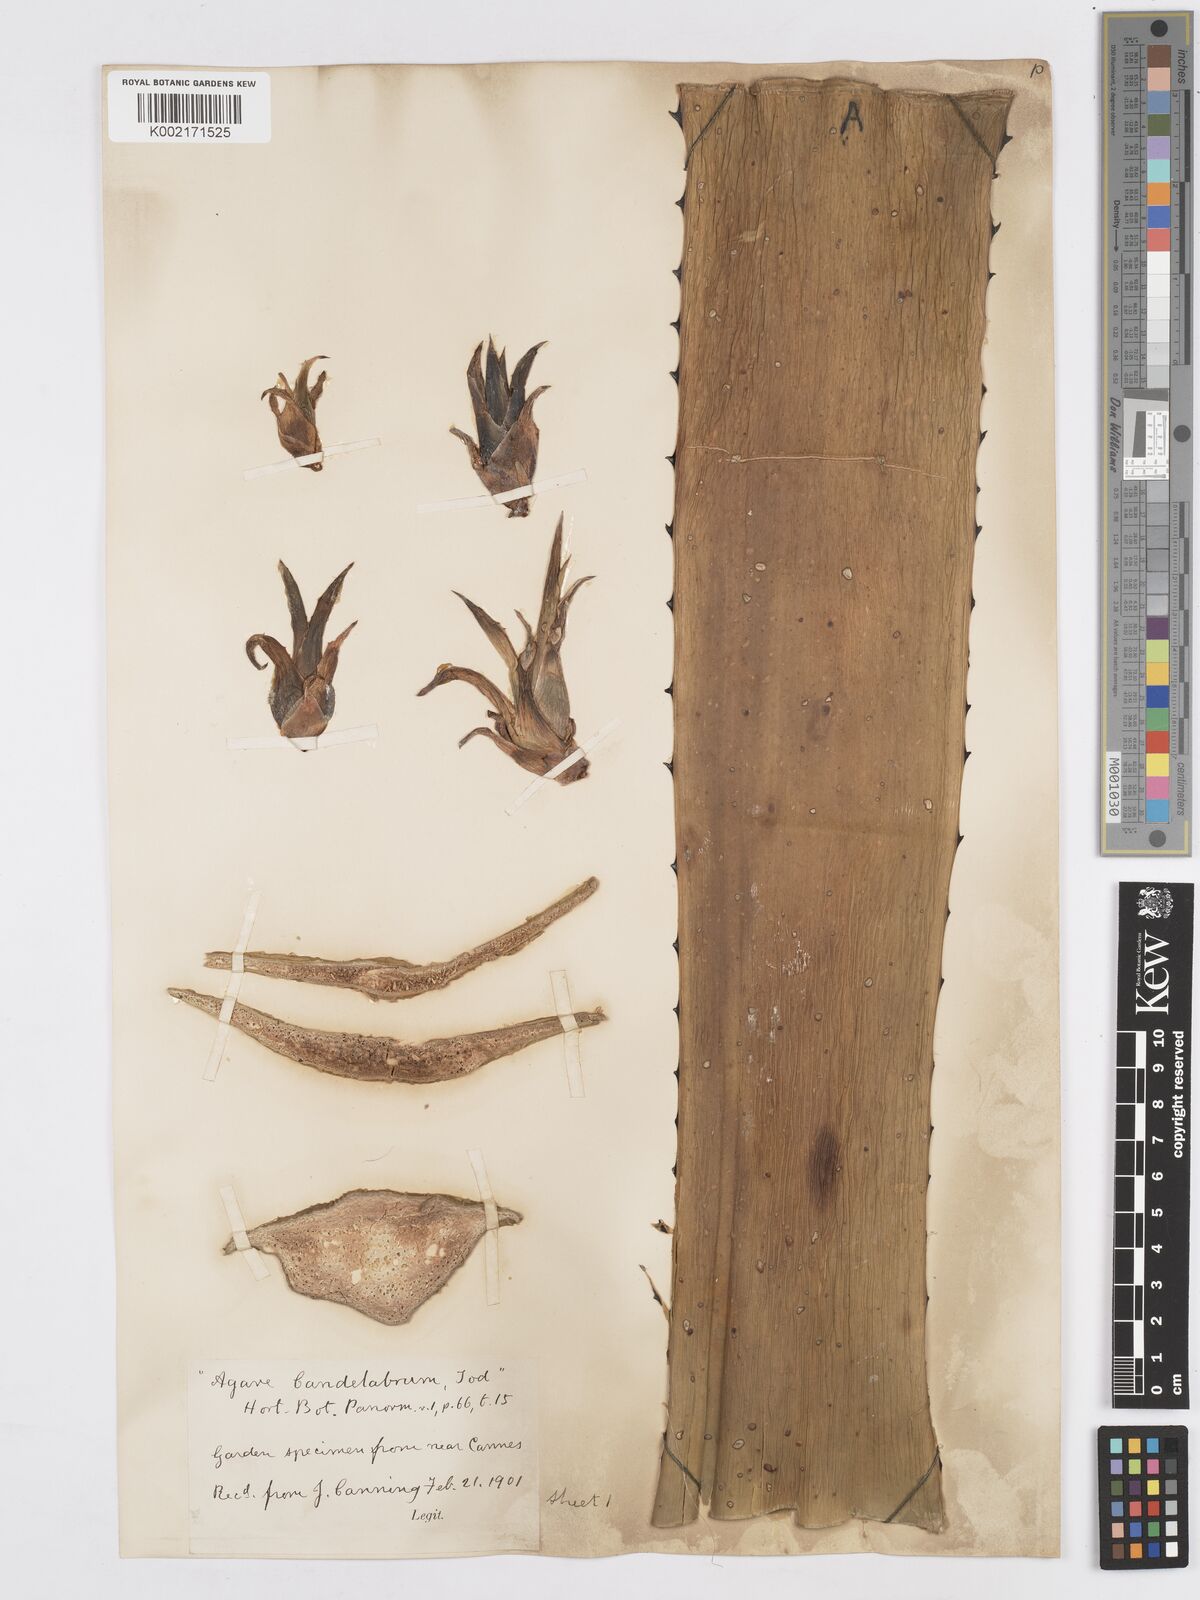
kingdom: Plantae
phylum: Tracheophyta
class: Liliopsida
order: Asparagales
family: Asparagaceae
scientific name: Asparagaceae
